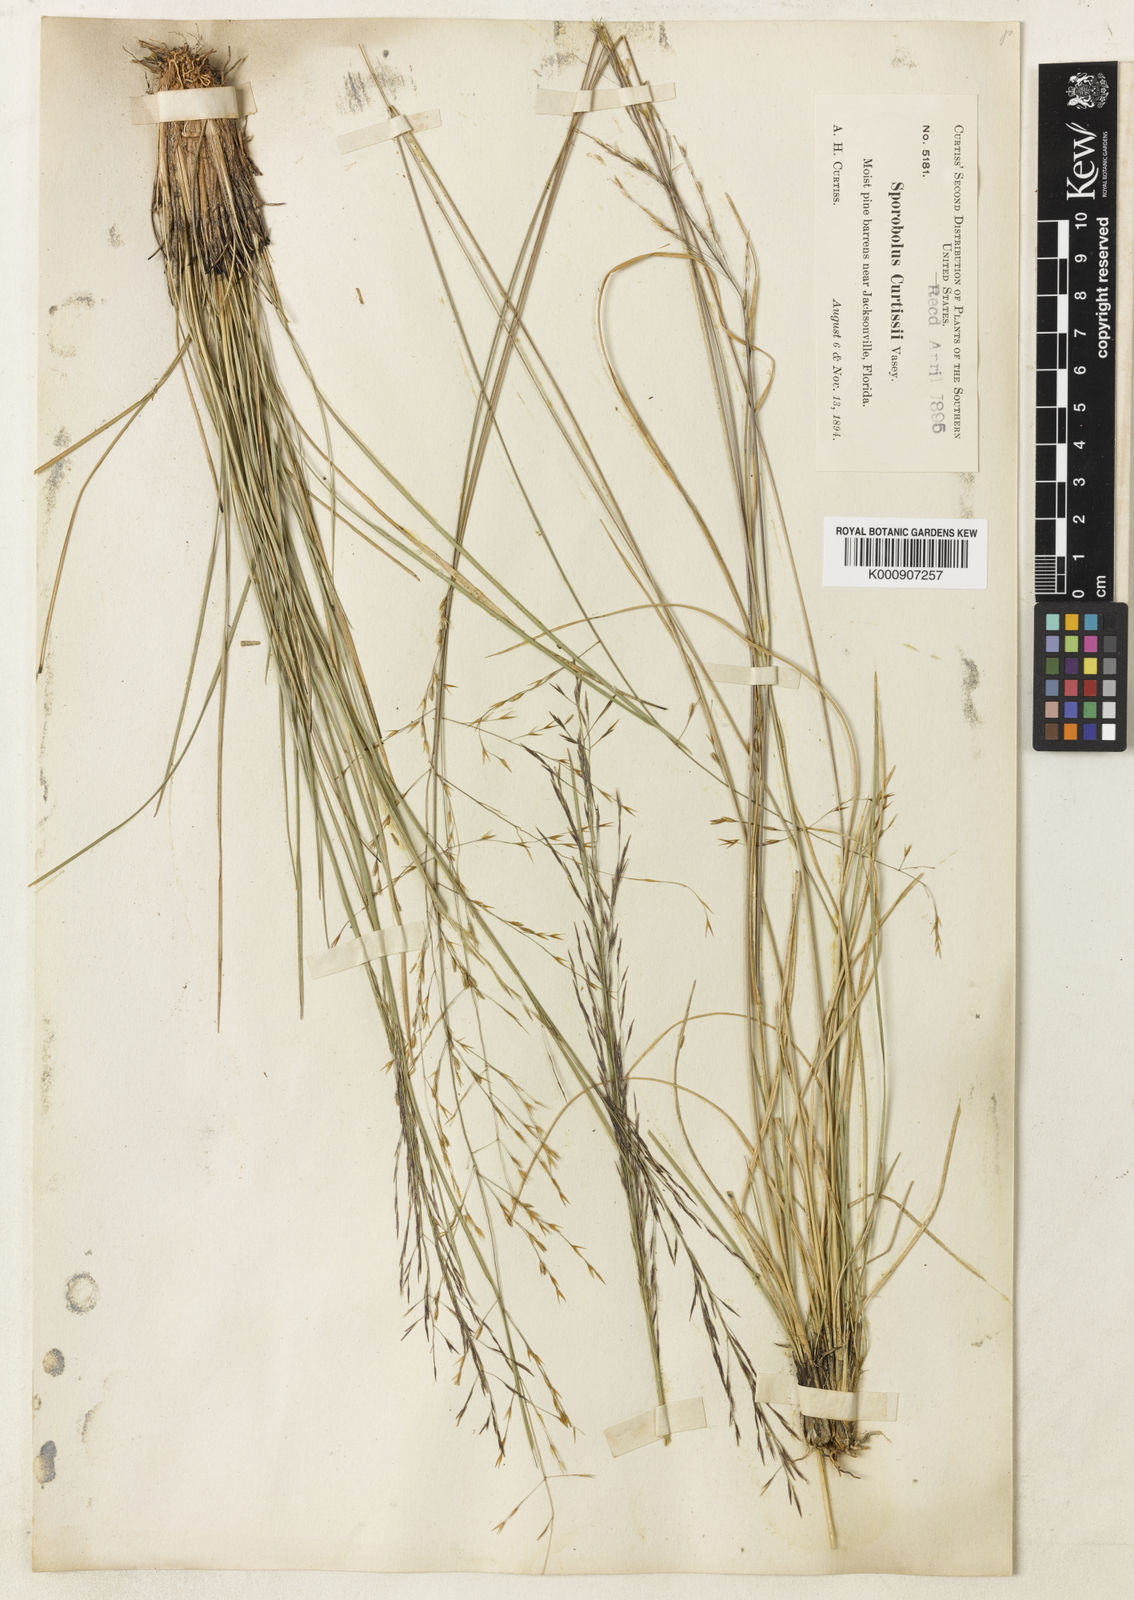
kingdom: Plantae
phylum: Tracheophyta
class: Liliopsida
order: Poales
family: Poaceae
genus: Sporobolus
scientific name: Sporobolus
